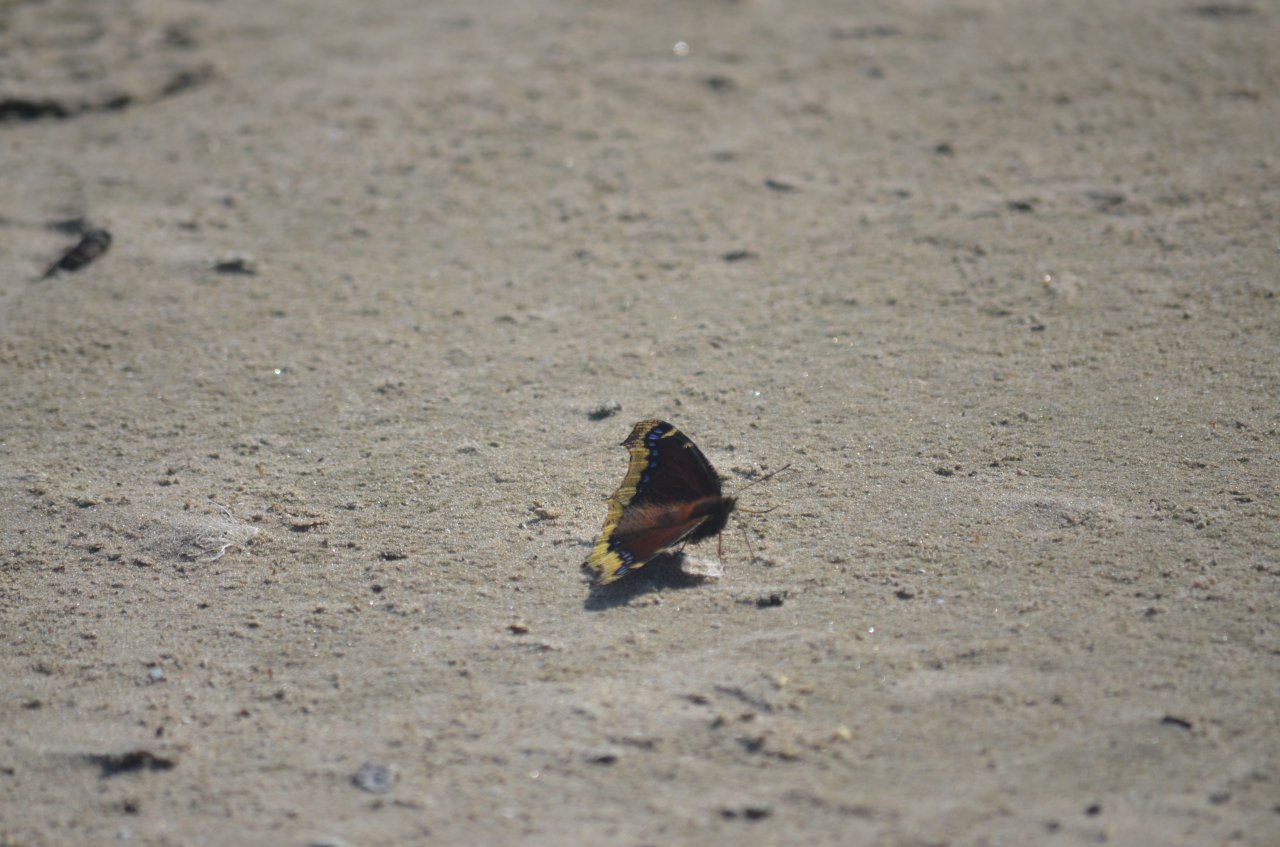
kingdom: Animalia
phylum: Arthropoda
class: Insecta
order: Lepidoptera
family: Nymphalidae
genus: Nymphalis
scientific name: Nymphalis antiopa
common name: Mourning Cloak
